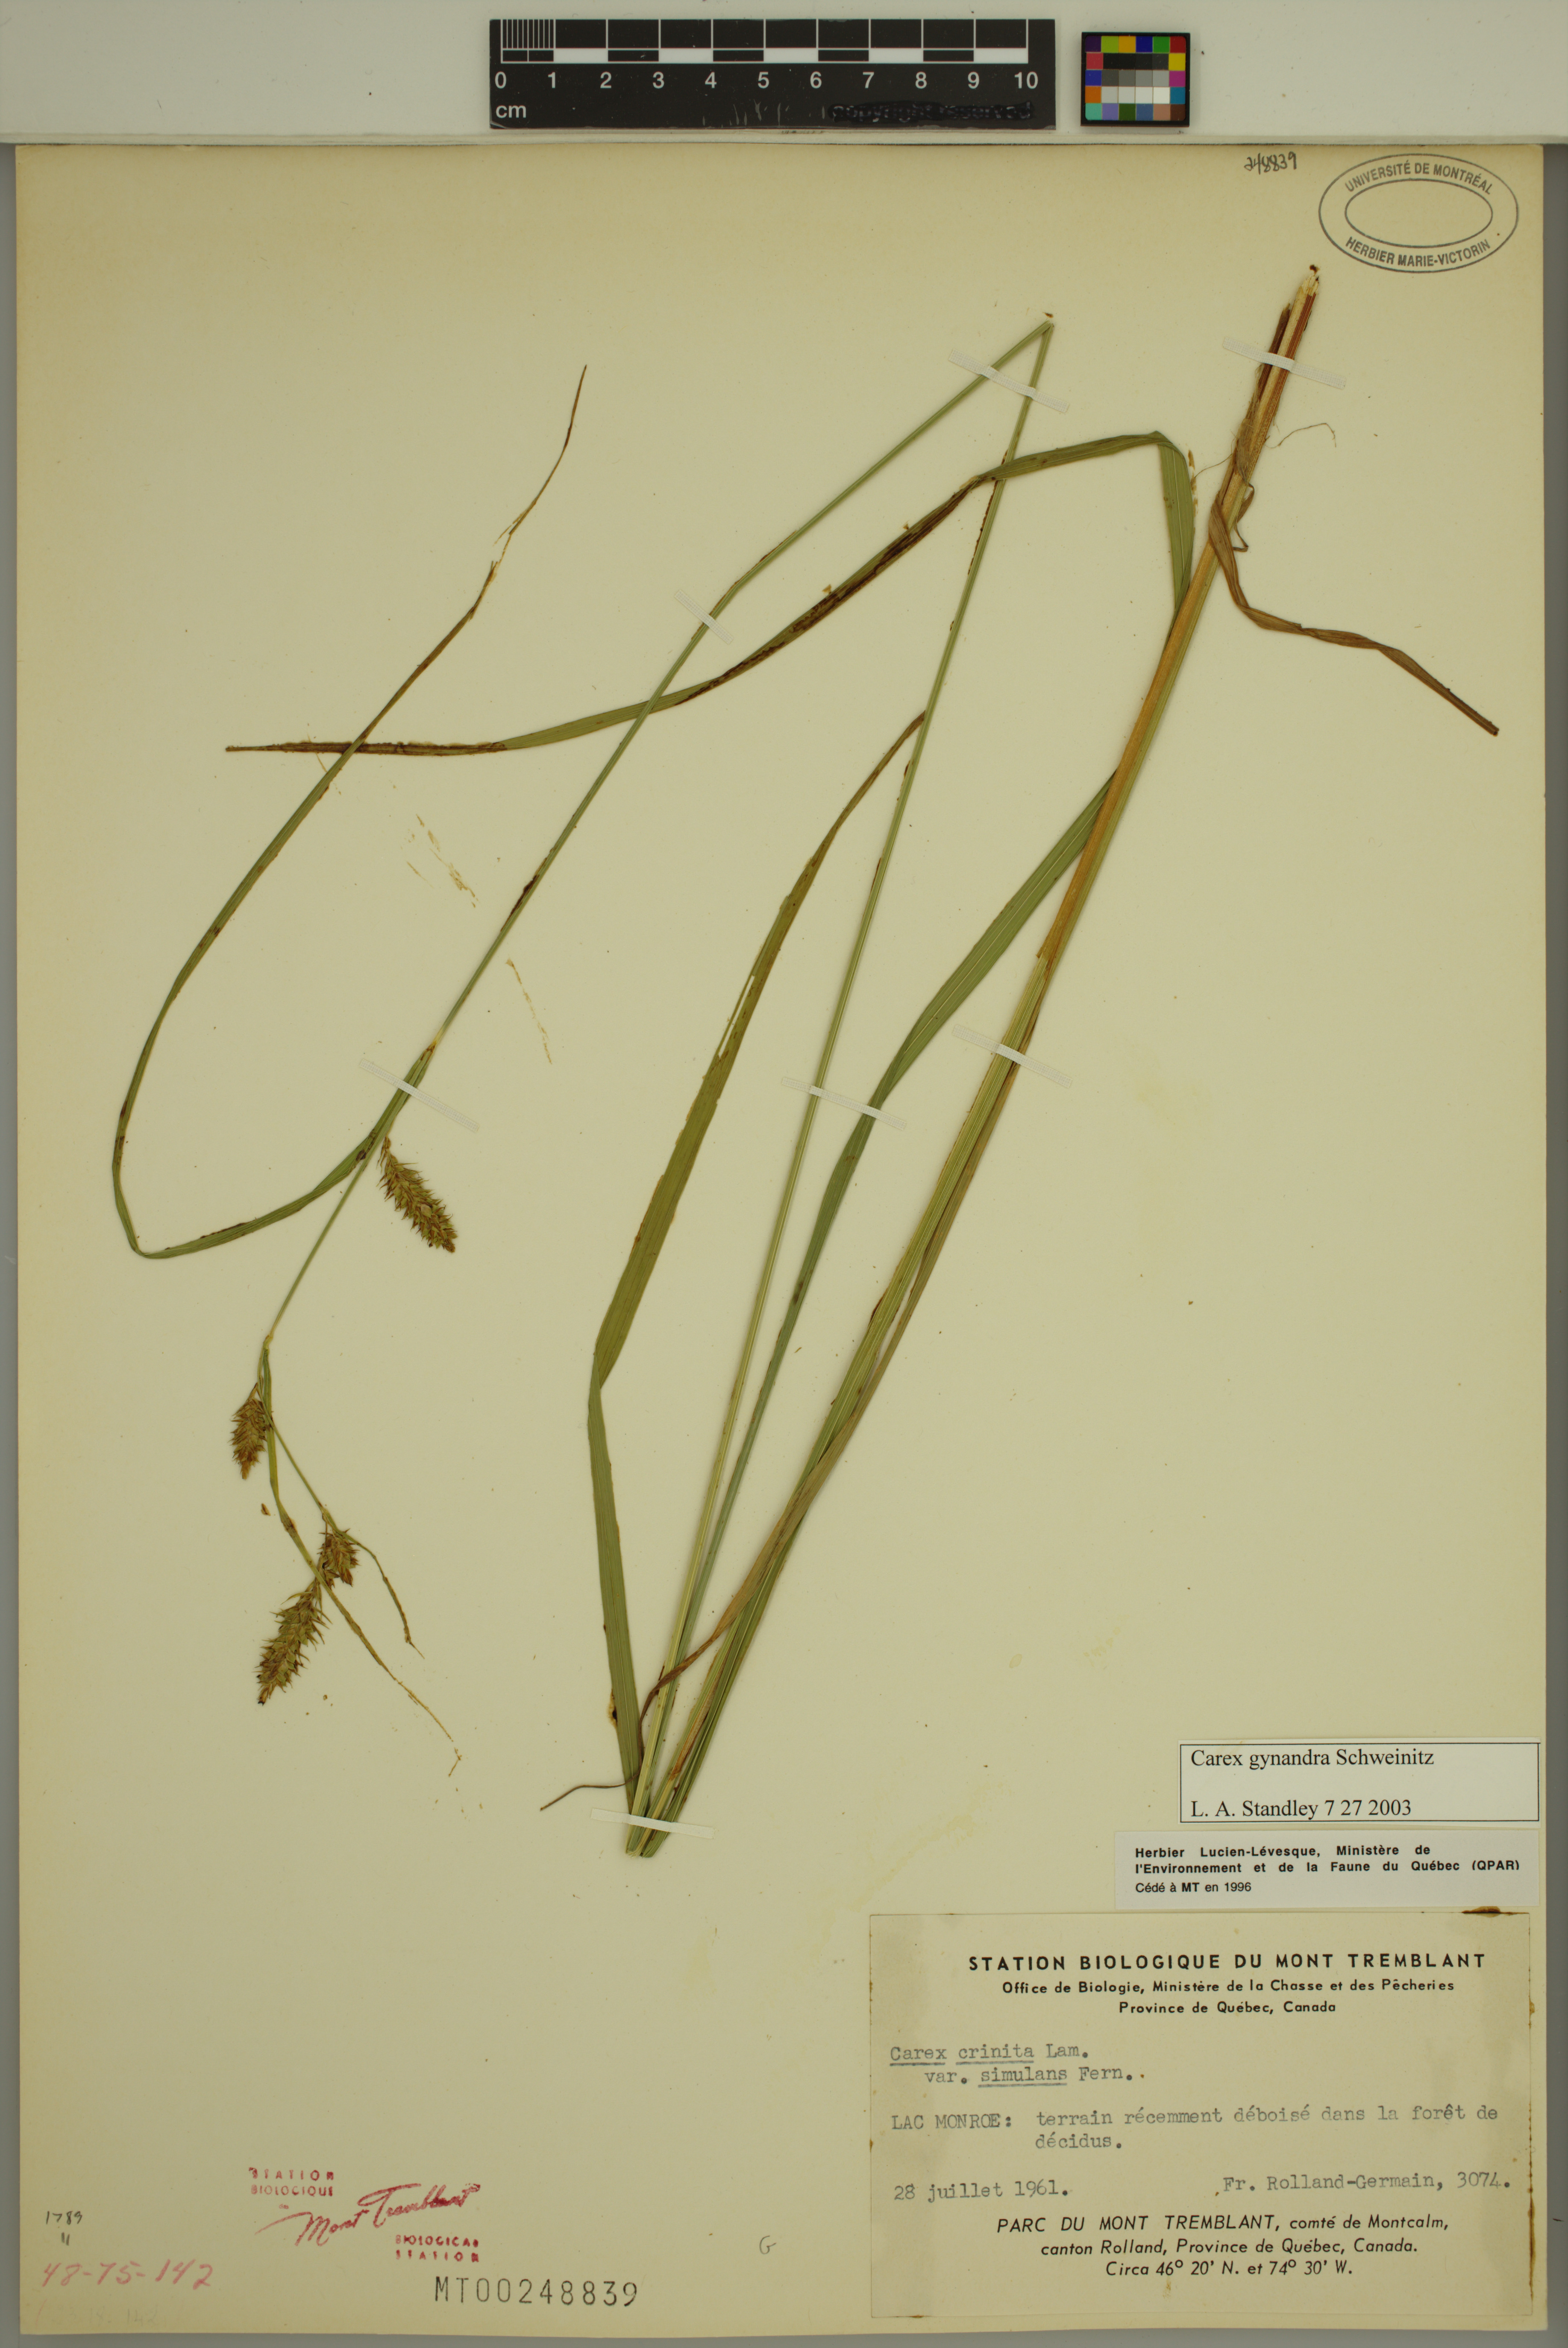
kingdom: Plantae
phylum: Tracheophyta
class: Liliopsida
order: Poales
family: Cyperaceae
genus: Carex
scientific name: Carex gynandra
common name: Nodding sedge
